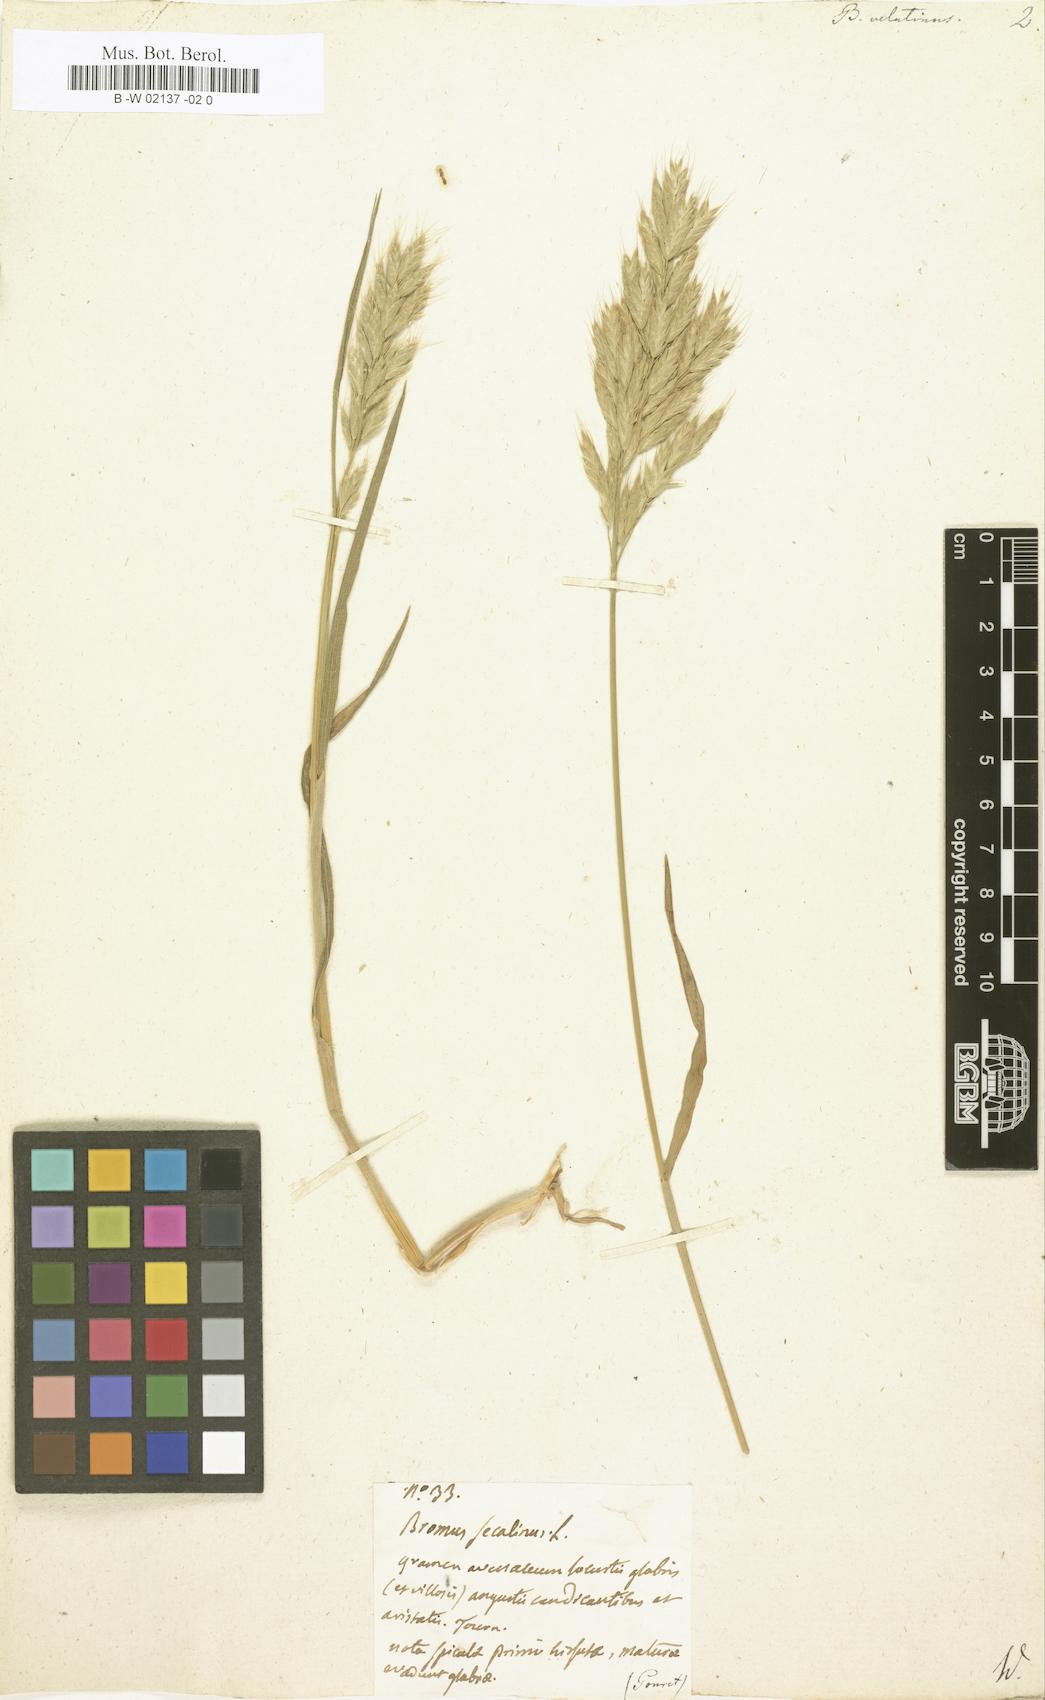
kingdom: Plantae
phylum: Tracheophyta
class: Liliopsida
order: Poales
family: Poaceae
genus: Bromus
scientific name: Bromus grossus
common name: Whiskered brome
